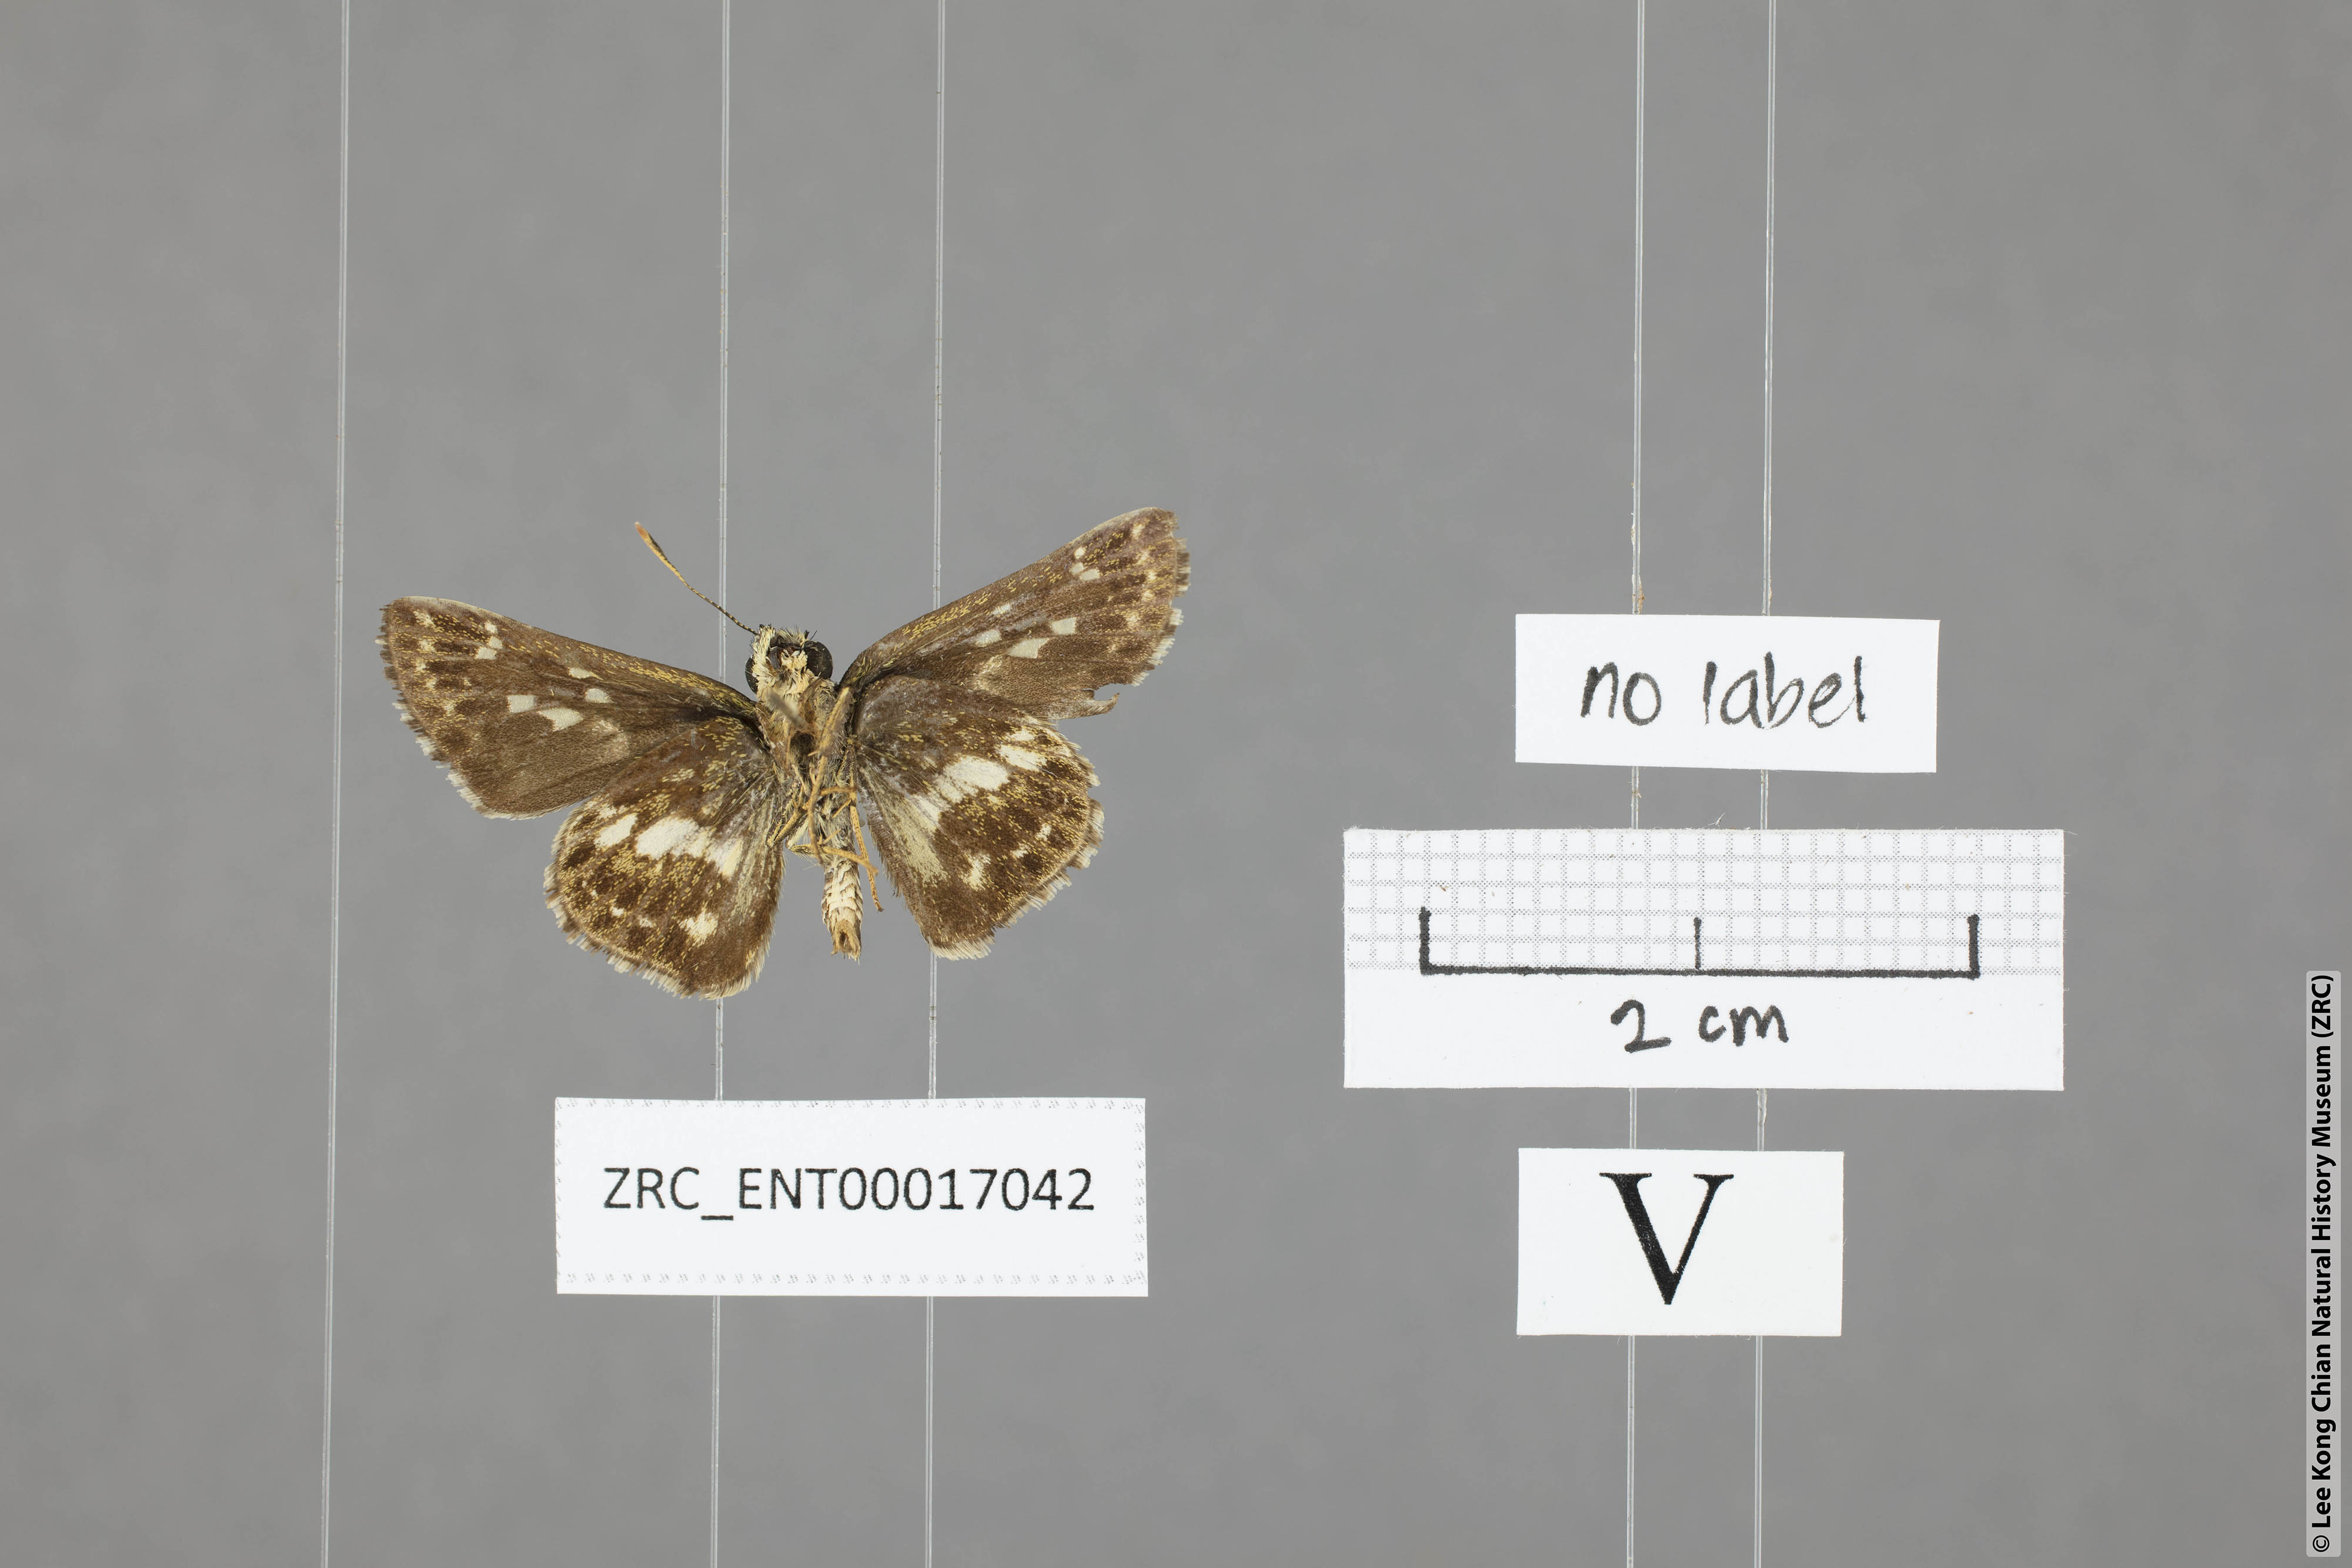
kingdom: Animalia
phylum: Arthropoda
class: Insecta
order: Lepidoptera
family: Hesperiidae
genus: Halpe
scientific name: Halpe porus
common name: Moore's ace
